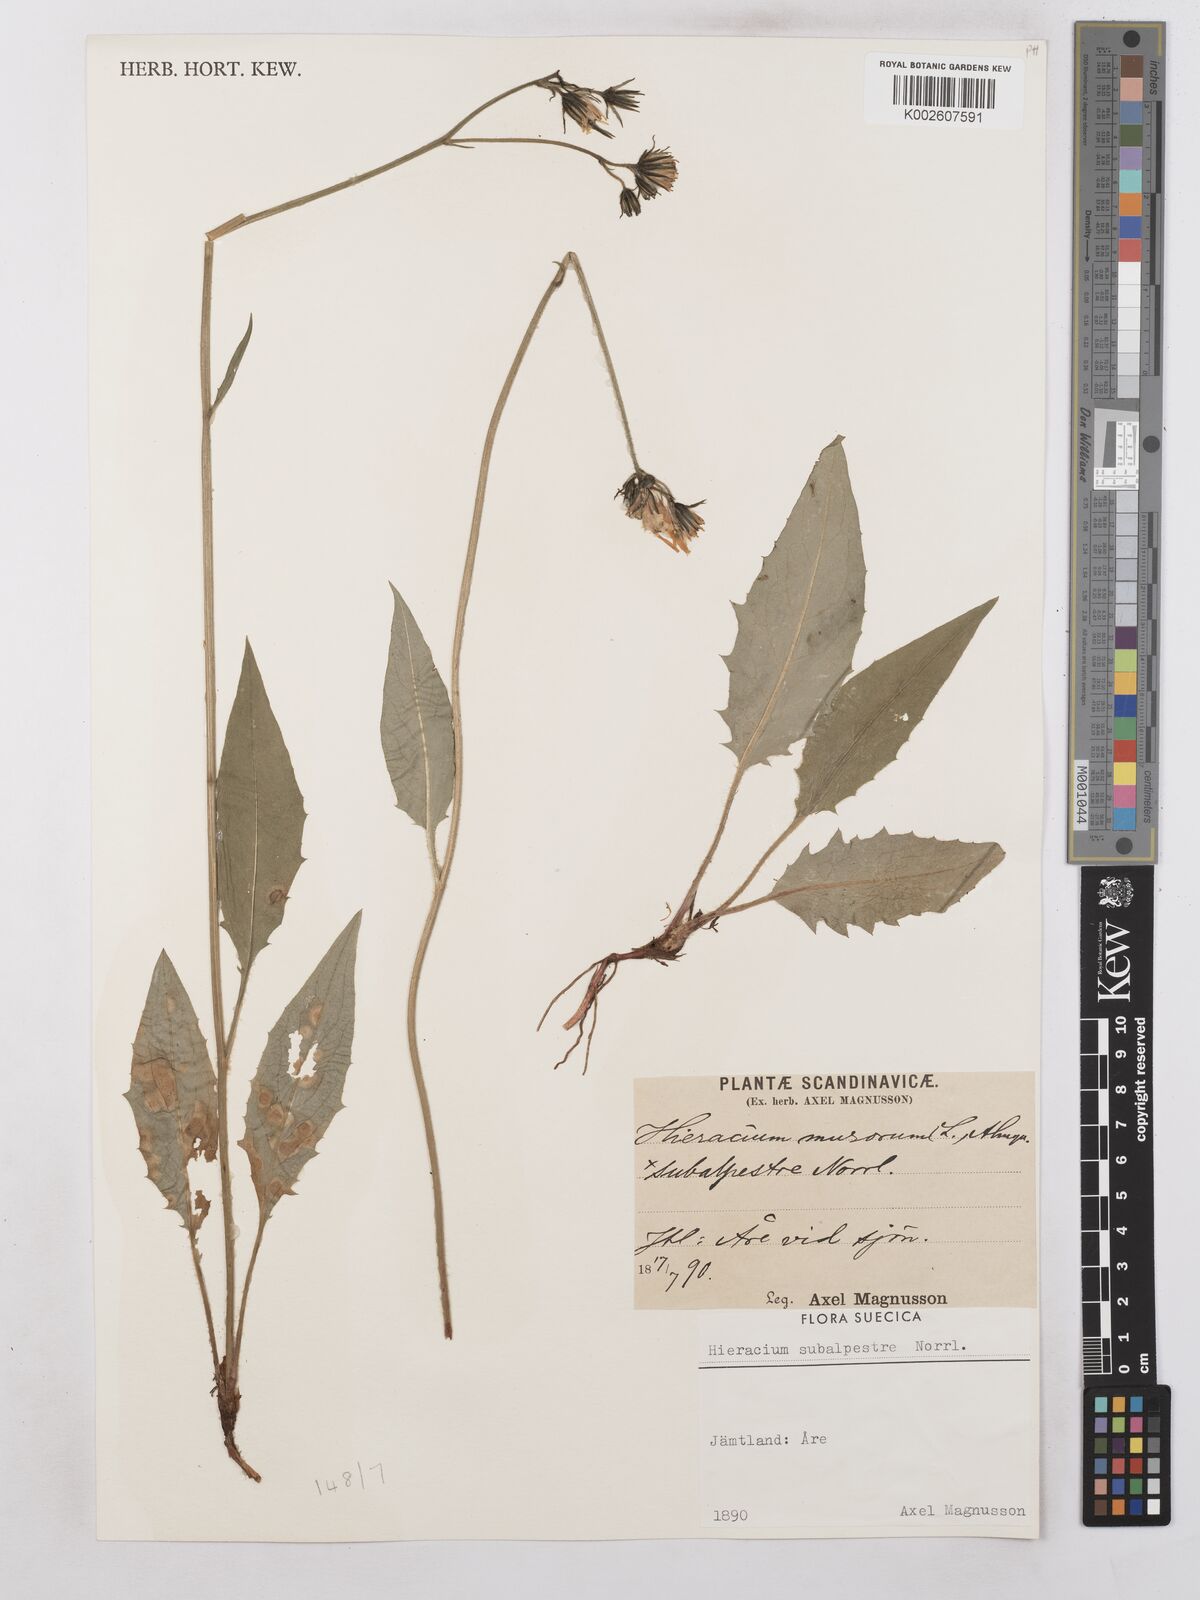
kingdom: Plantae
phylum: Tracheophyta
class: Magnoliopsida
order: Asterales
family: Asteraceae
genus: Hieracium
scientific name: Hieracium subramosum
